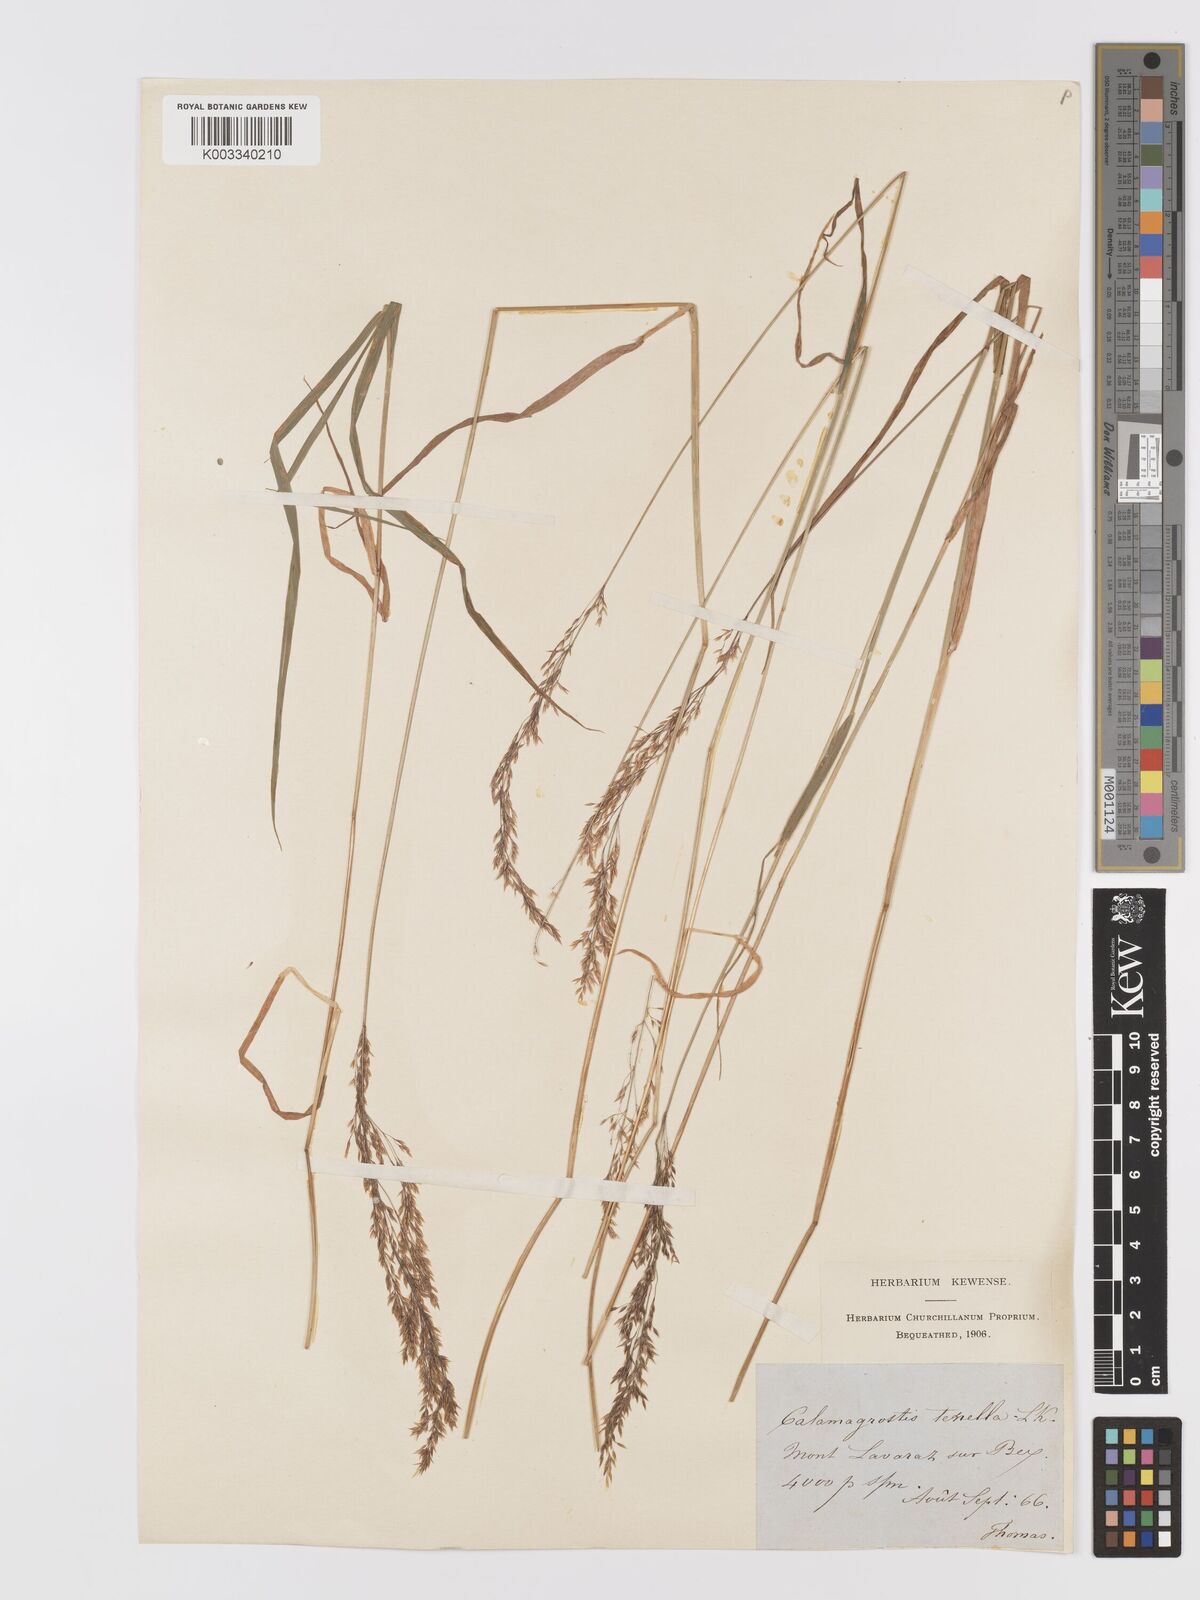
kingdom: Plantae
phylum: Tracheophyta
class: Liliopsida
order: Poales
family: Poaceae
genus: Agrostis
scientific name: Agrostis schraderiana
